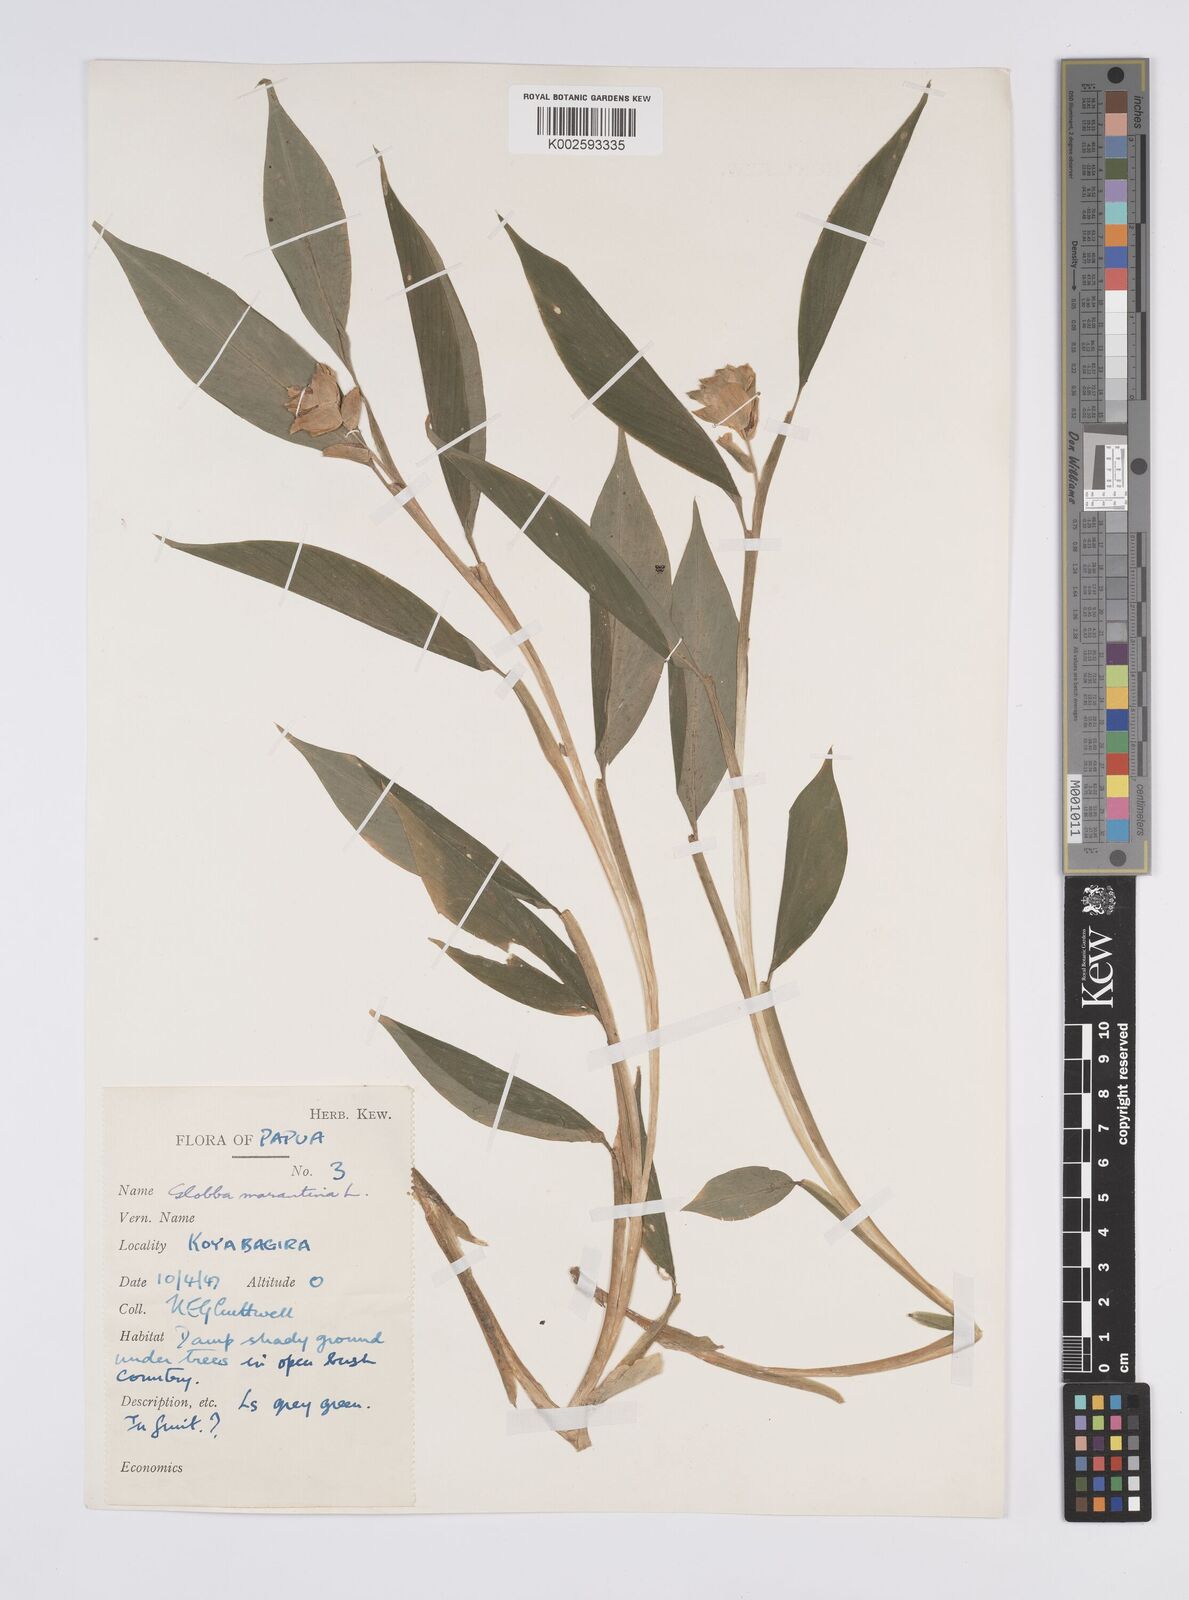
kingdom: Plantae
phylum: Tracheophyta
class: Liliopsida
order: Zingiberales
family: Zingiberaceae
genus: Globba
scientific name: Globba marantina
